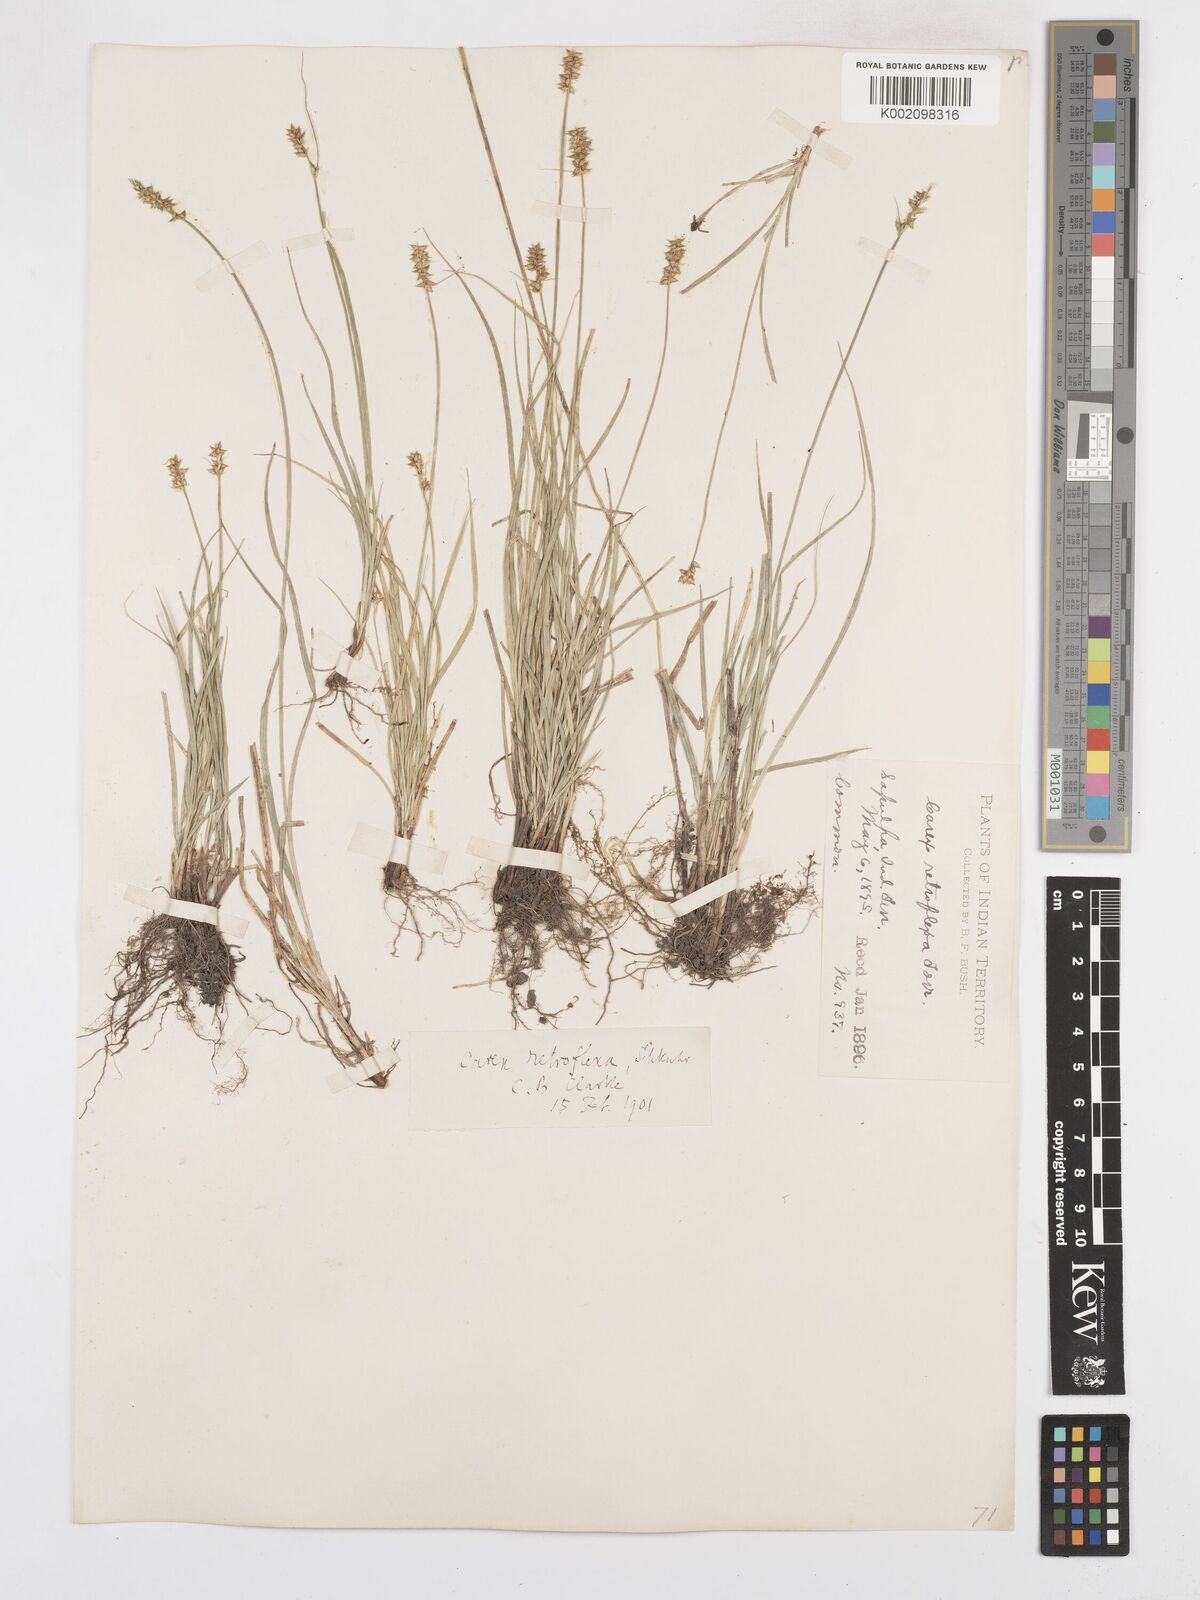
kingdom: Plantae
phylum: Tracheophyta
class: Liliopsida
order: Poales
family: Cyperaceae
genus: Carex
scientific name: Carex retroflexa
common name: Reflexed sedge
